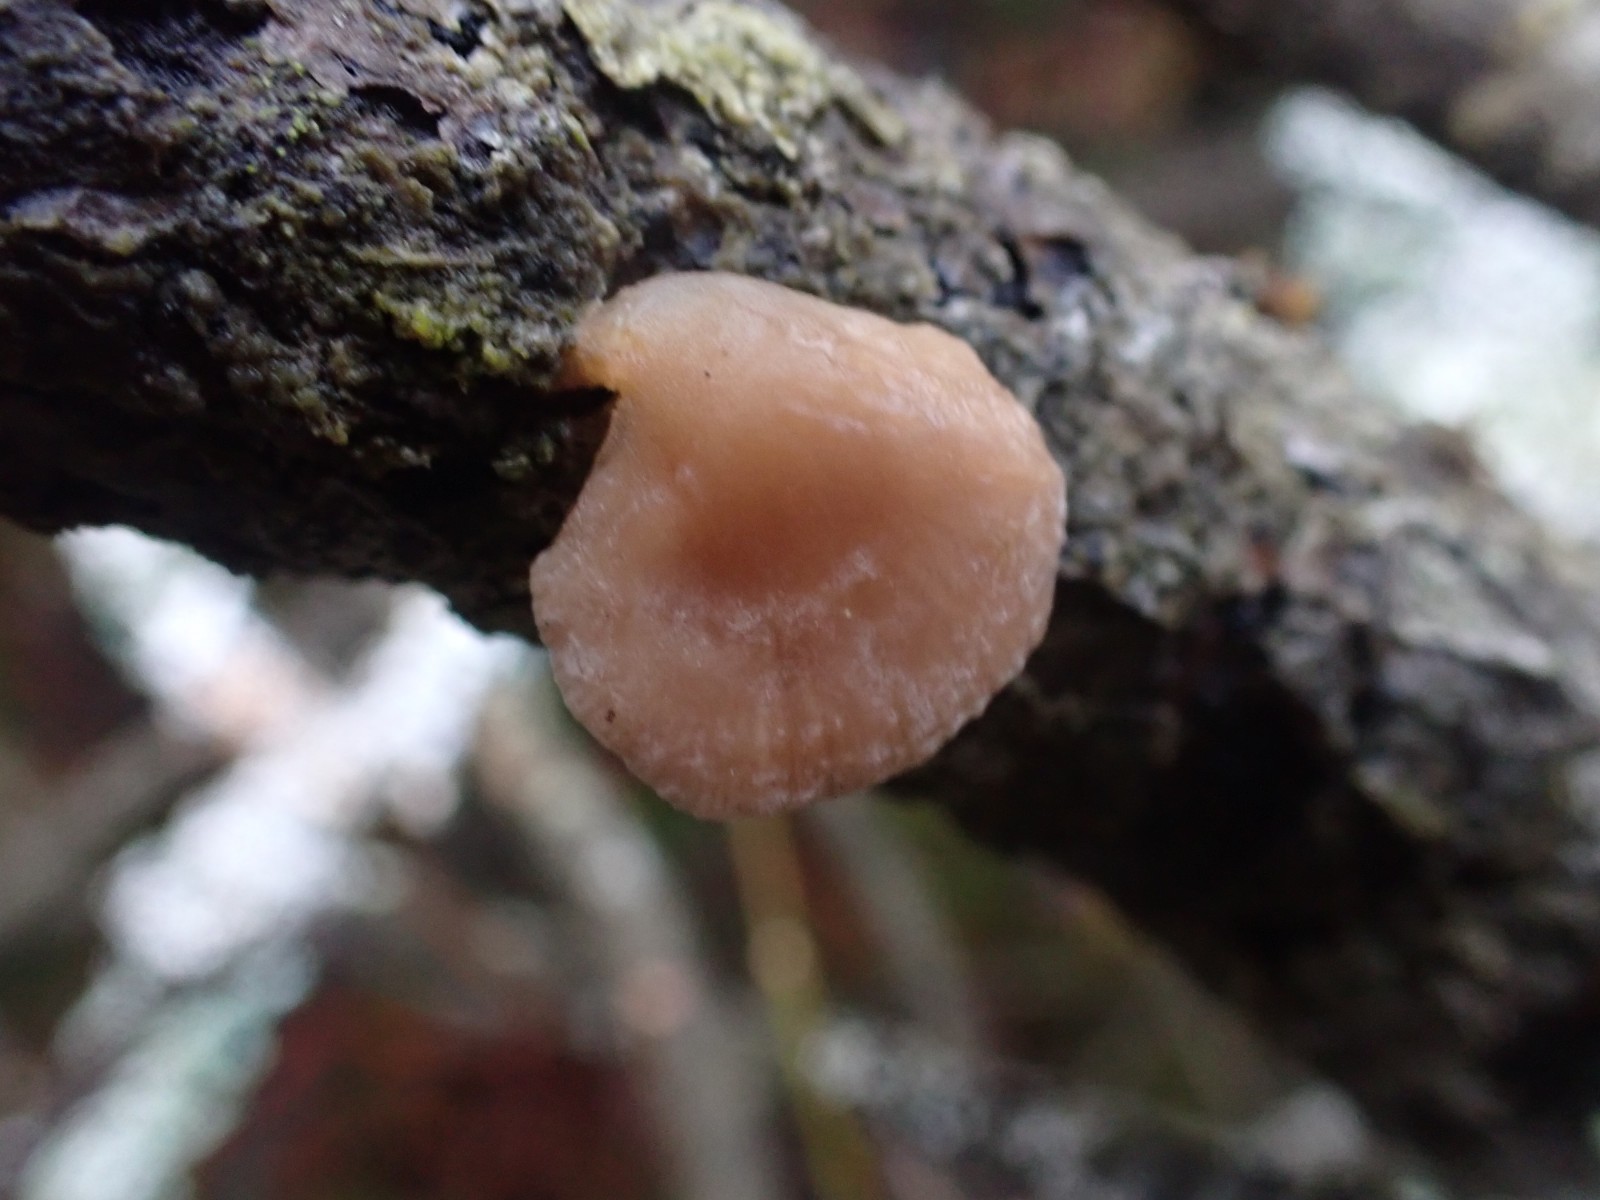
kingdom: Fungi
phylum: Basidiomycota
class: Agaricomycetes
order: Agaricales
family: Mycenaceae
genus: Panellus
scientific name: Panellus mitis
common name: mild epaulethat
